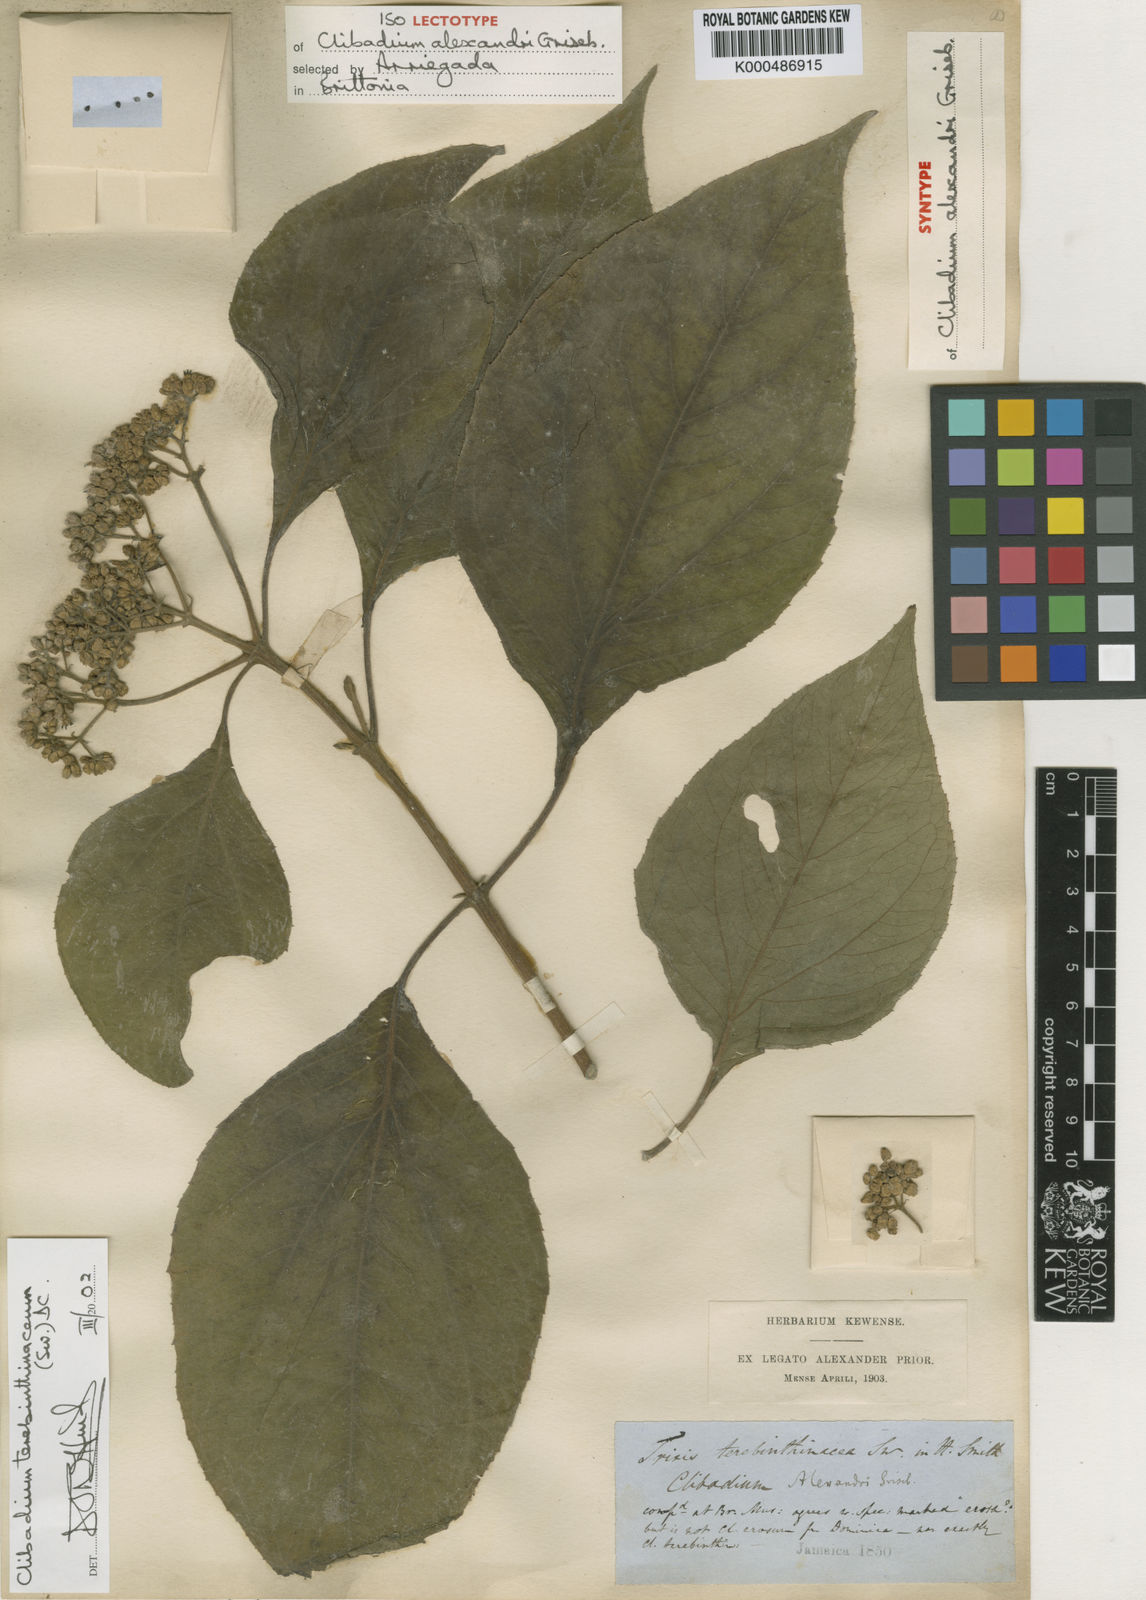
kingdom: Plantae
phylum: Tracheophyta
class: Magnoliopsida
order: Asterales
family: Asteraceae
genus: Clibadium
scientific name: Clibadium terebinthinaceum
